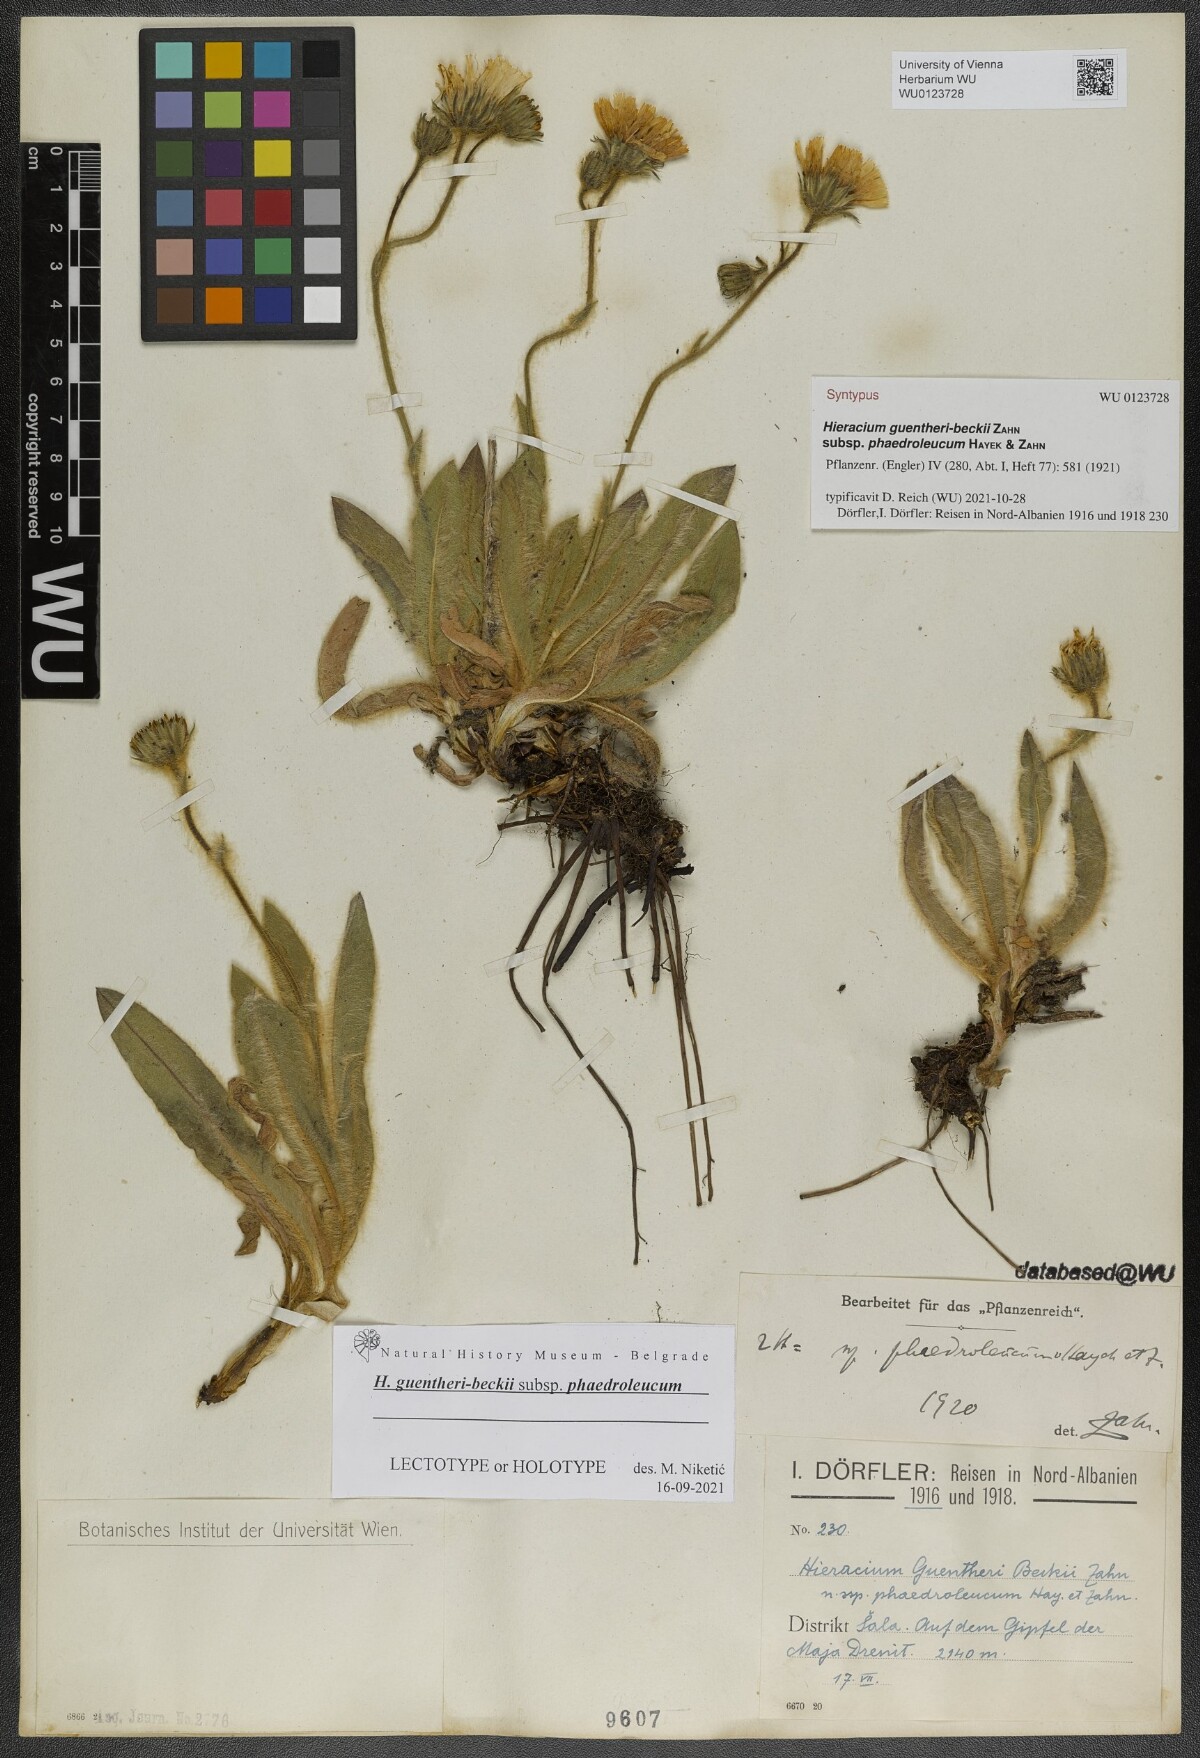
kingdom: Plantae
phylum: Tracheophyta
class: Magnoliopsida
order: Asterales
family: Asteraceae
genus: Hieracium
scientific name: Hieracium guentheri-beckii
